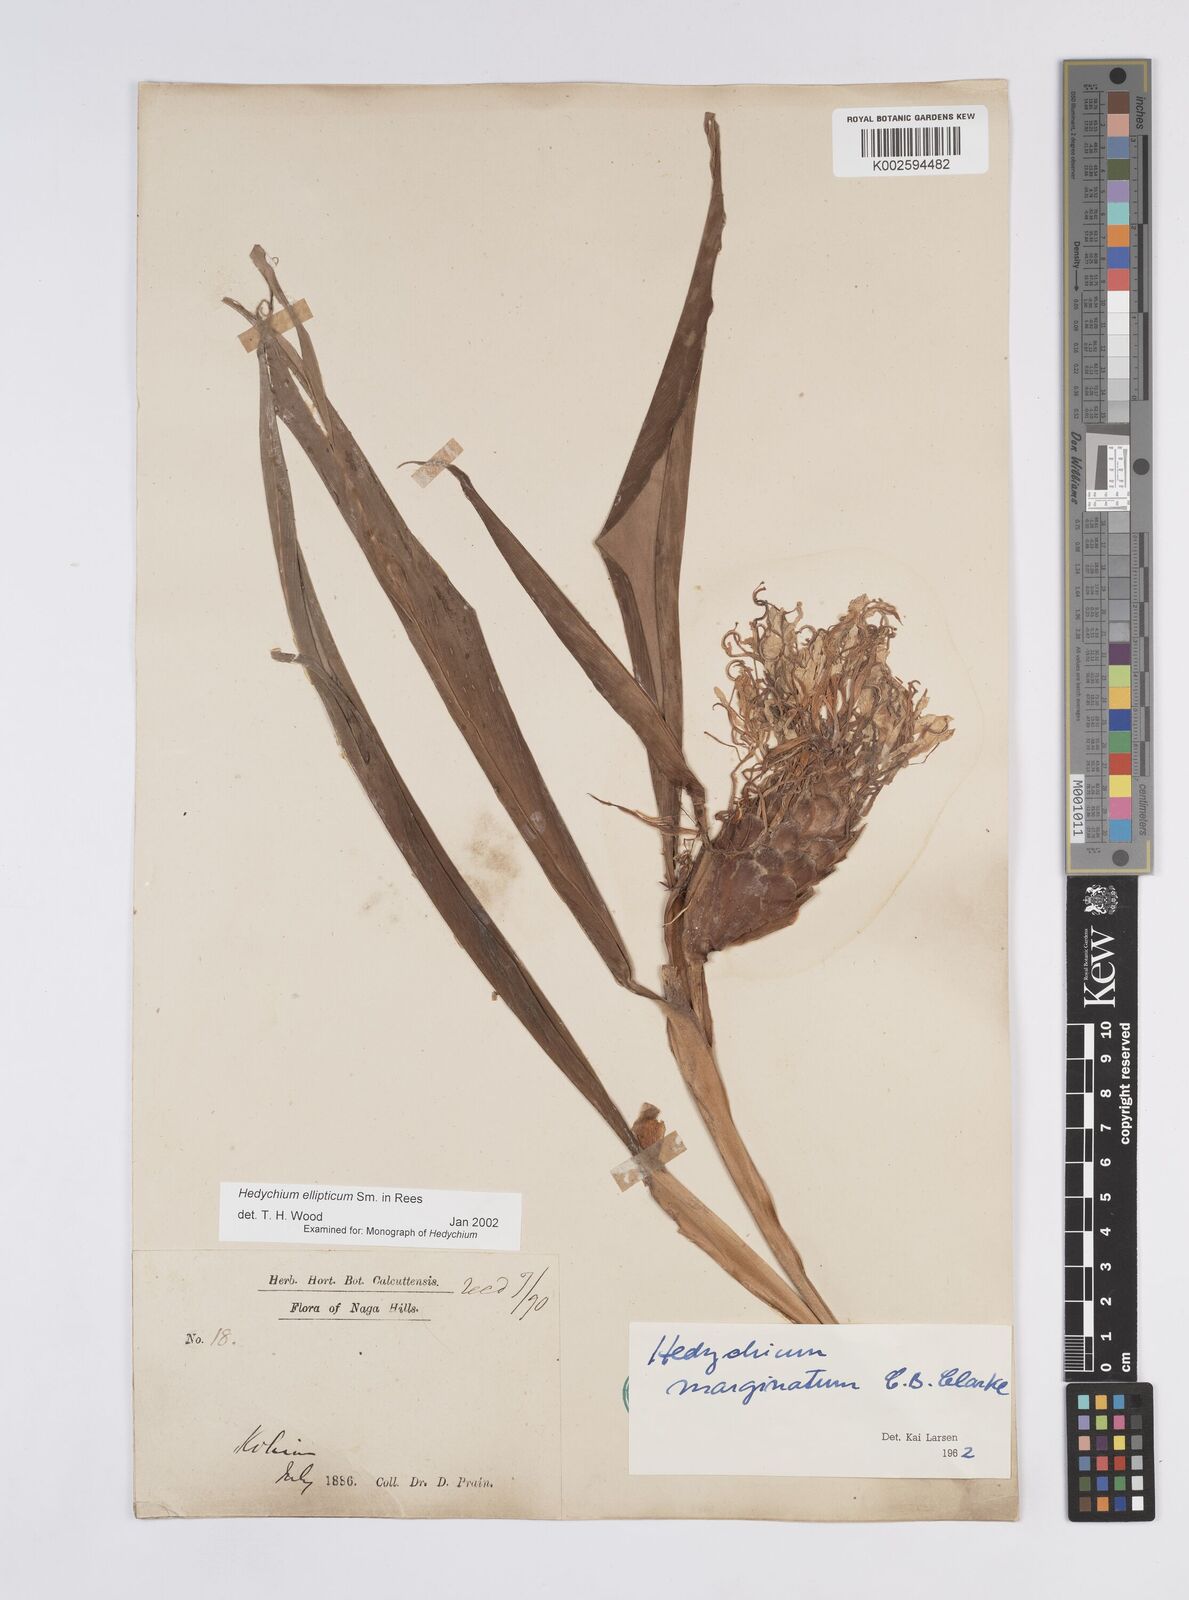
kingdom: Plantae
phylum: Tracheophyta
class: Liliopsida
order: Zingiberales
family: Zingiberaceae
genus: Hedychium
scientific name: Hedychium ellipticum
